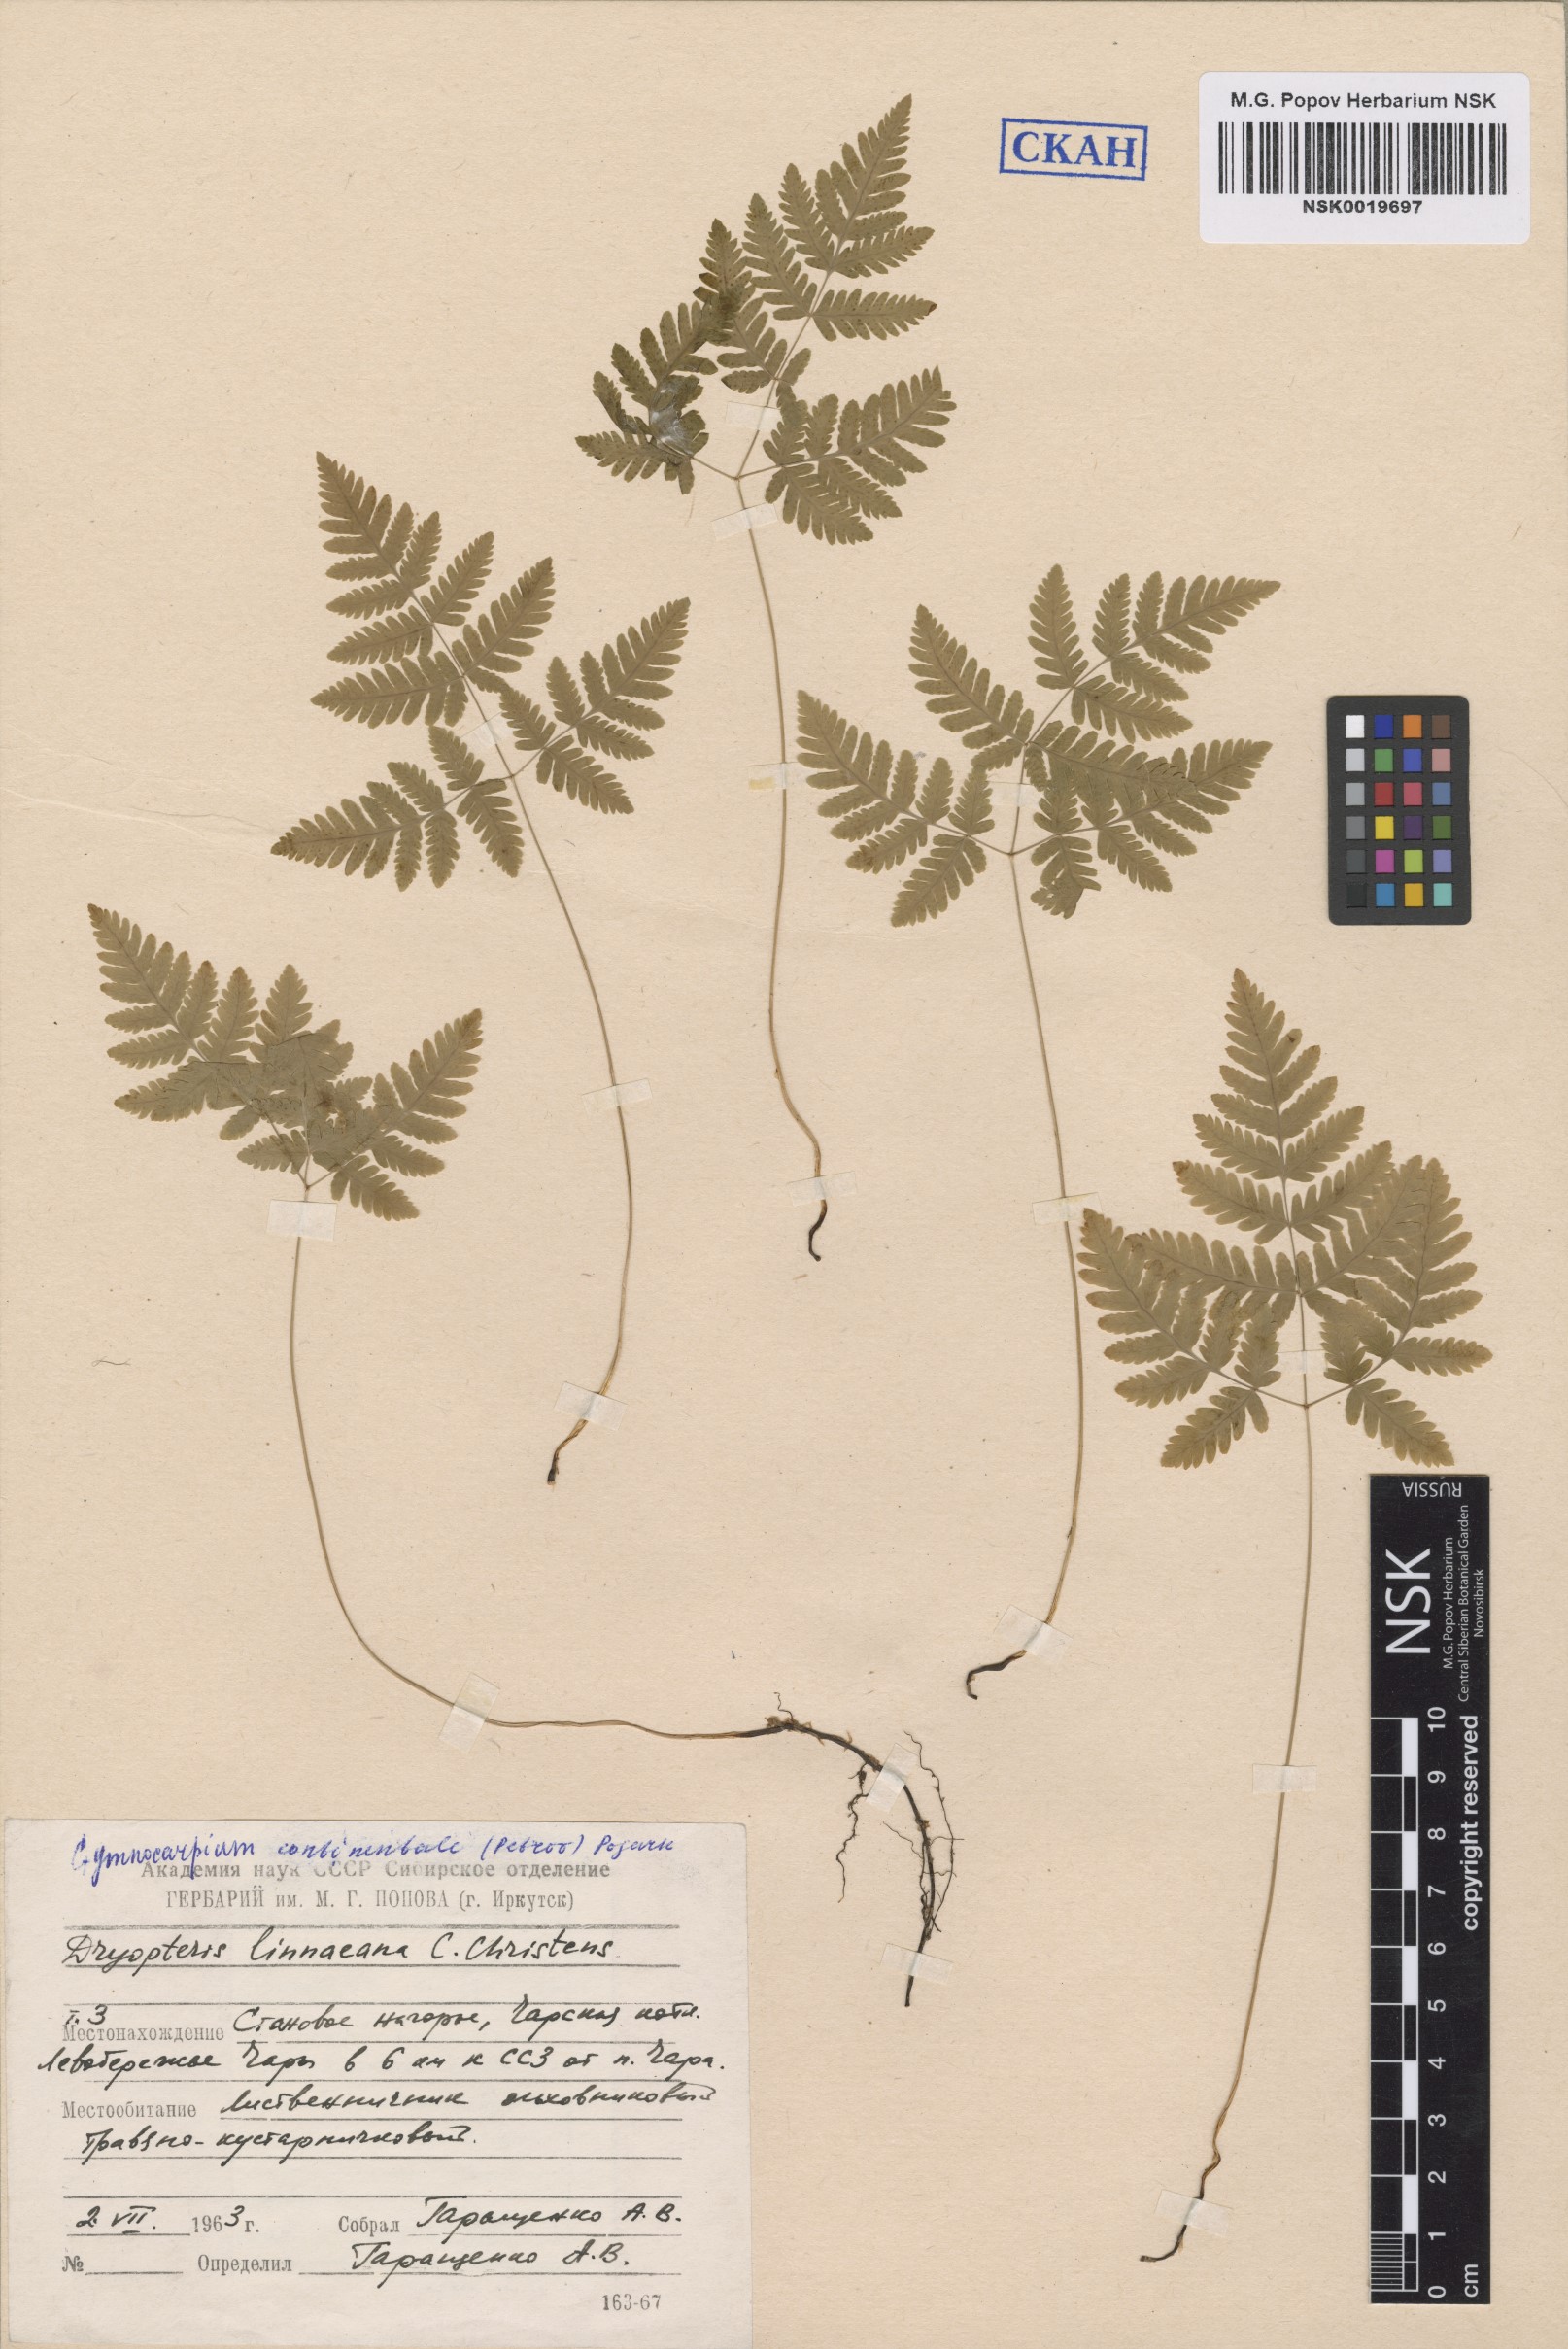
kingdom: Plantae
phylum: Tracheophyta
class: Polypodiopsida
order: Polypodiales
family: Cystopteridaceae
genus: Gymnocarpium
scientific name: Gymnocarpium continentale
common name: Asian oak fern
